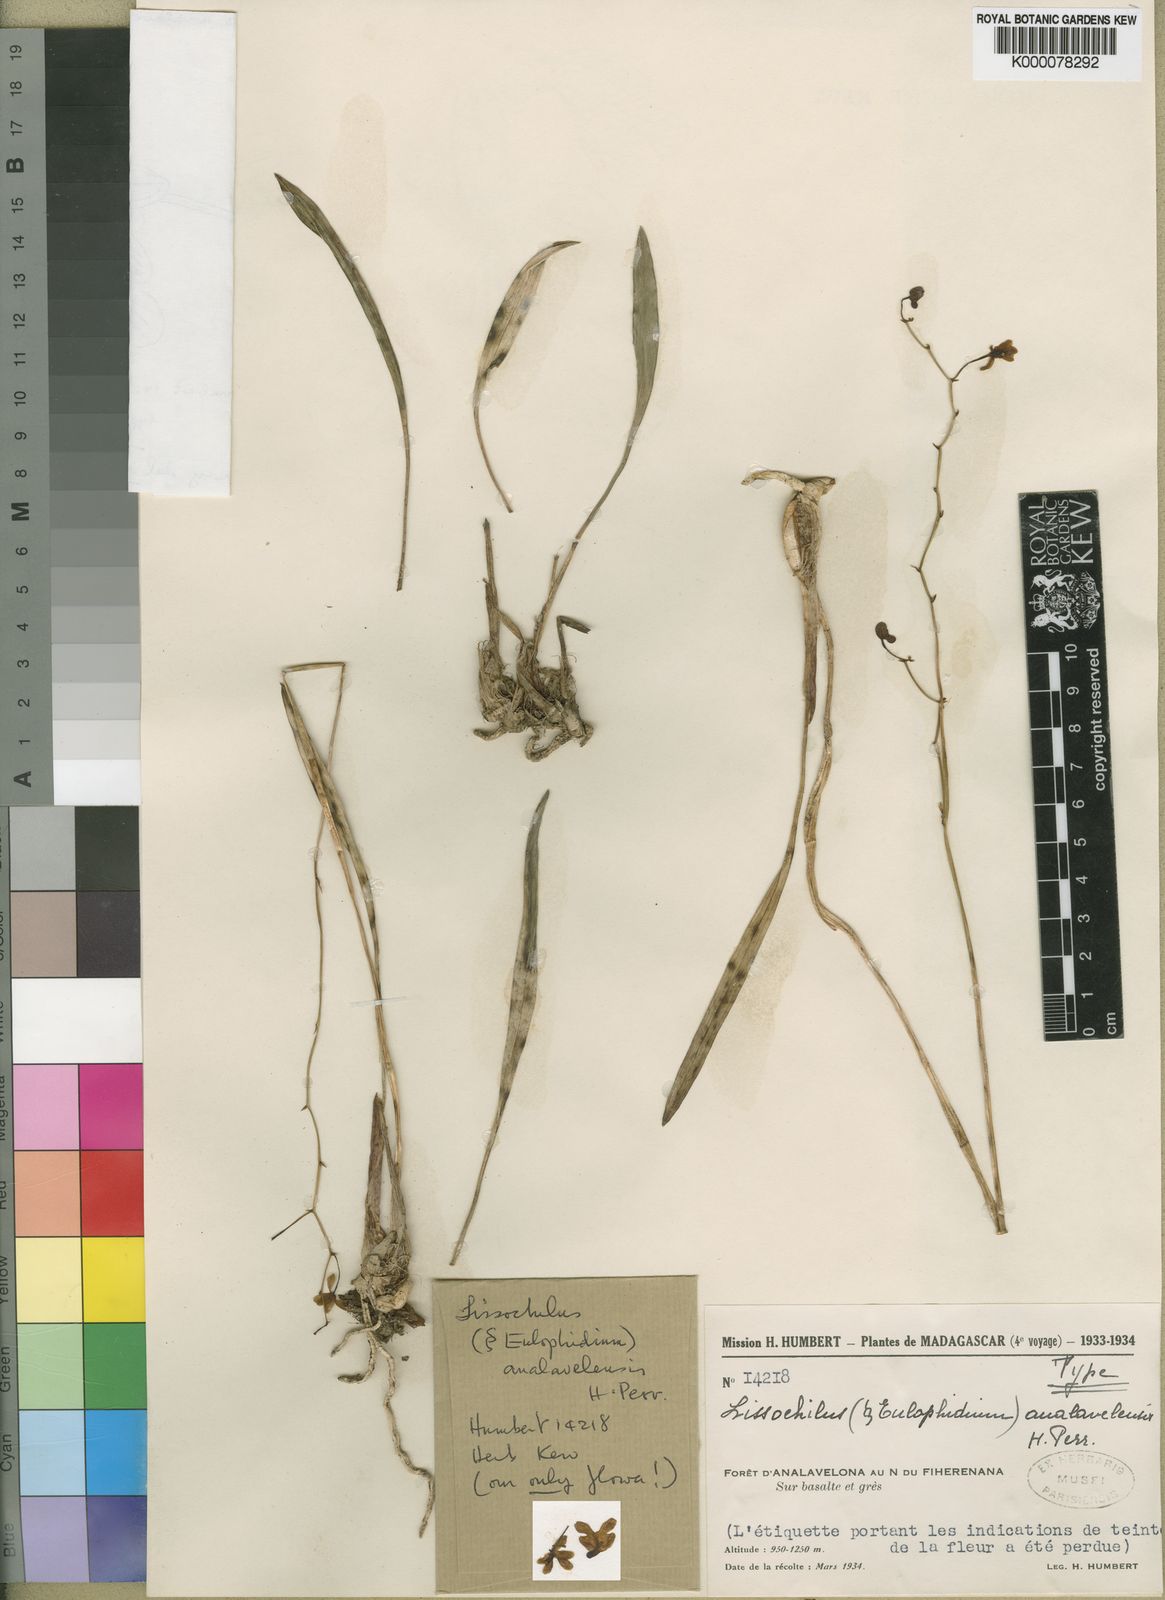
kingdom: Plantae
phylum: Tracheophyta
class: Liliopsida
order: Asparagales
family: Orchidaceae
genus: Eulophia
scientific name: Eulophia analavelensis
